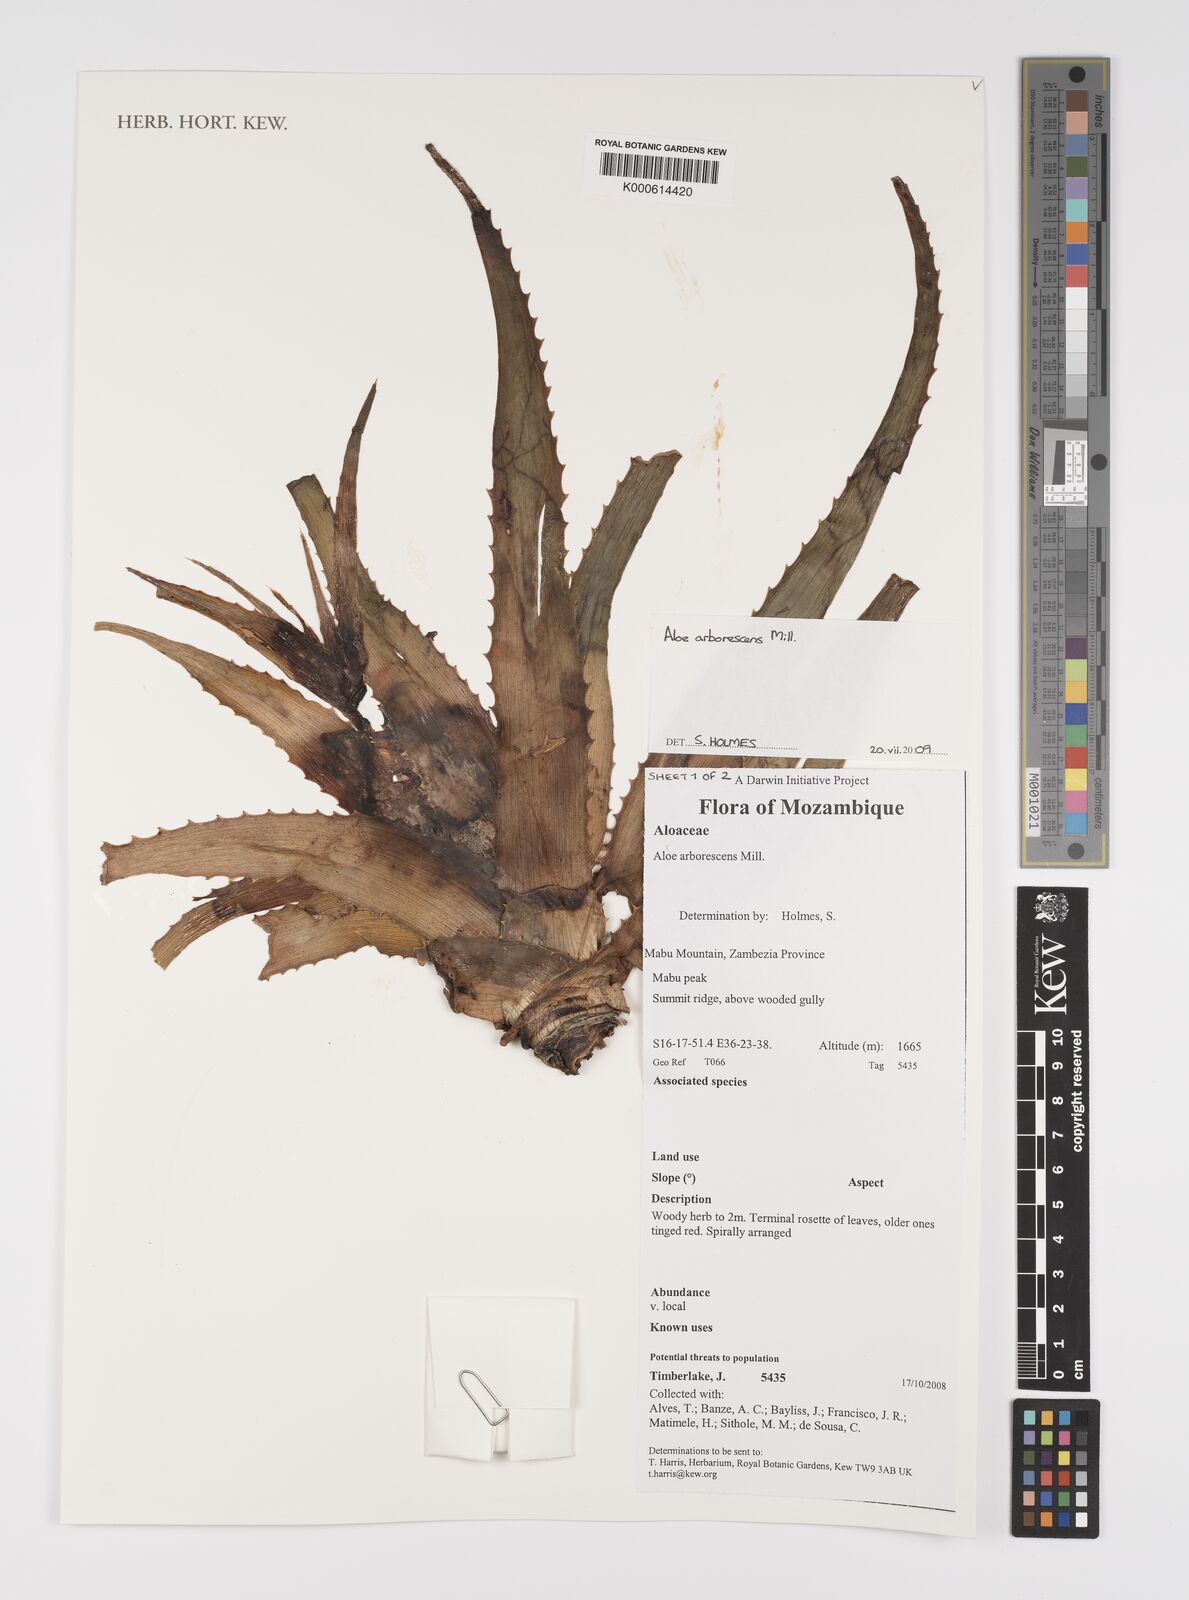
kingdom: Plantae
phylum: Tracheophyta
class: Liliopsida
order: Asparagales
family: Asphodelaceae
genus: Aloe
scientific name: Aloe arborescens
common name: Candelabra aloe
